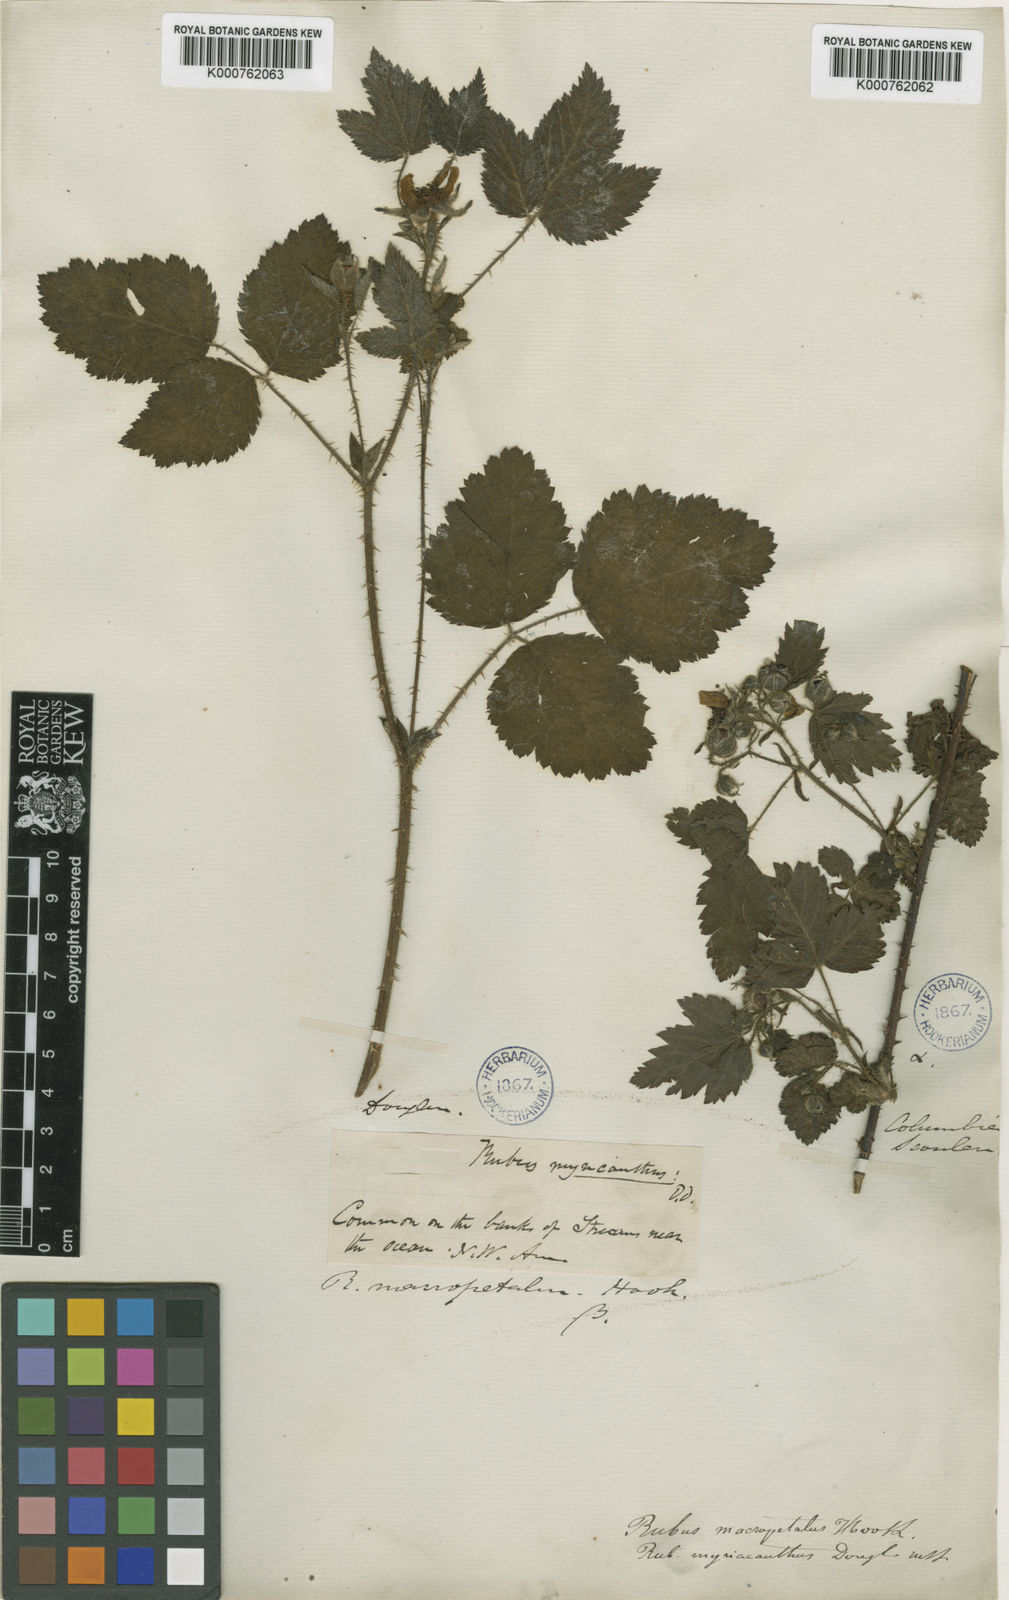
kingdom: Plantae
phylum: Tracheophyta
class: Magnoliopsida
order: Rosales
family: Rosaceae
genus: Rubus
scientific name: Rubus macropetalus
